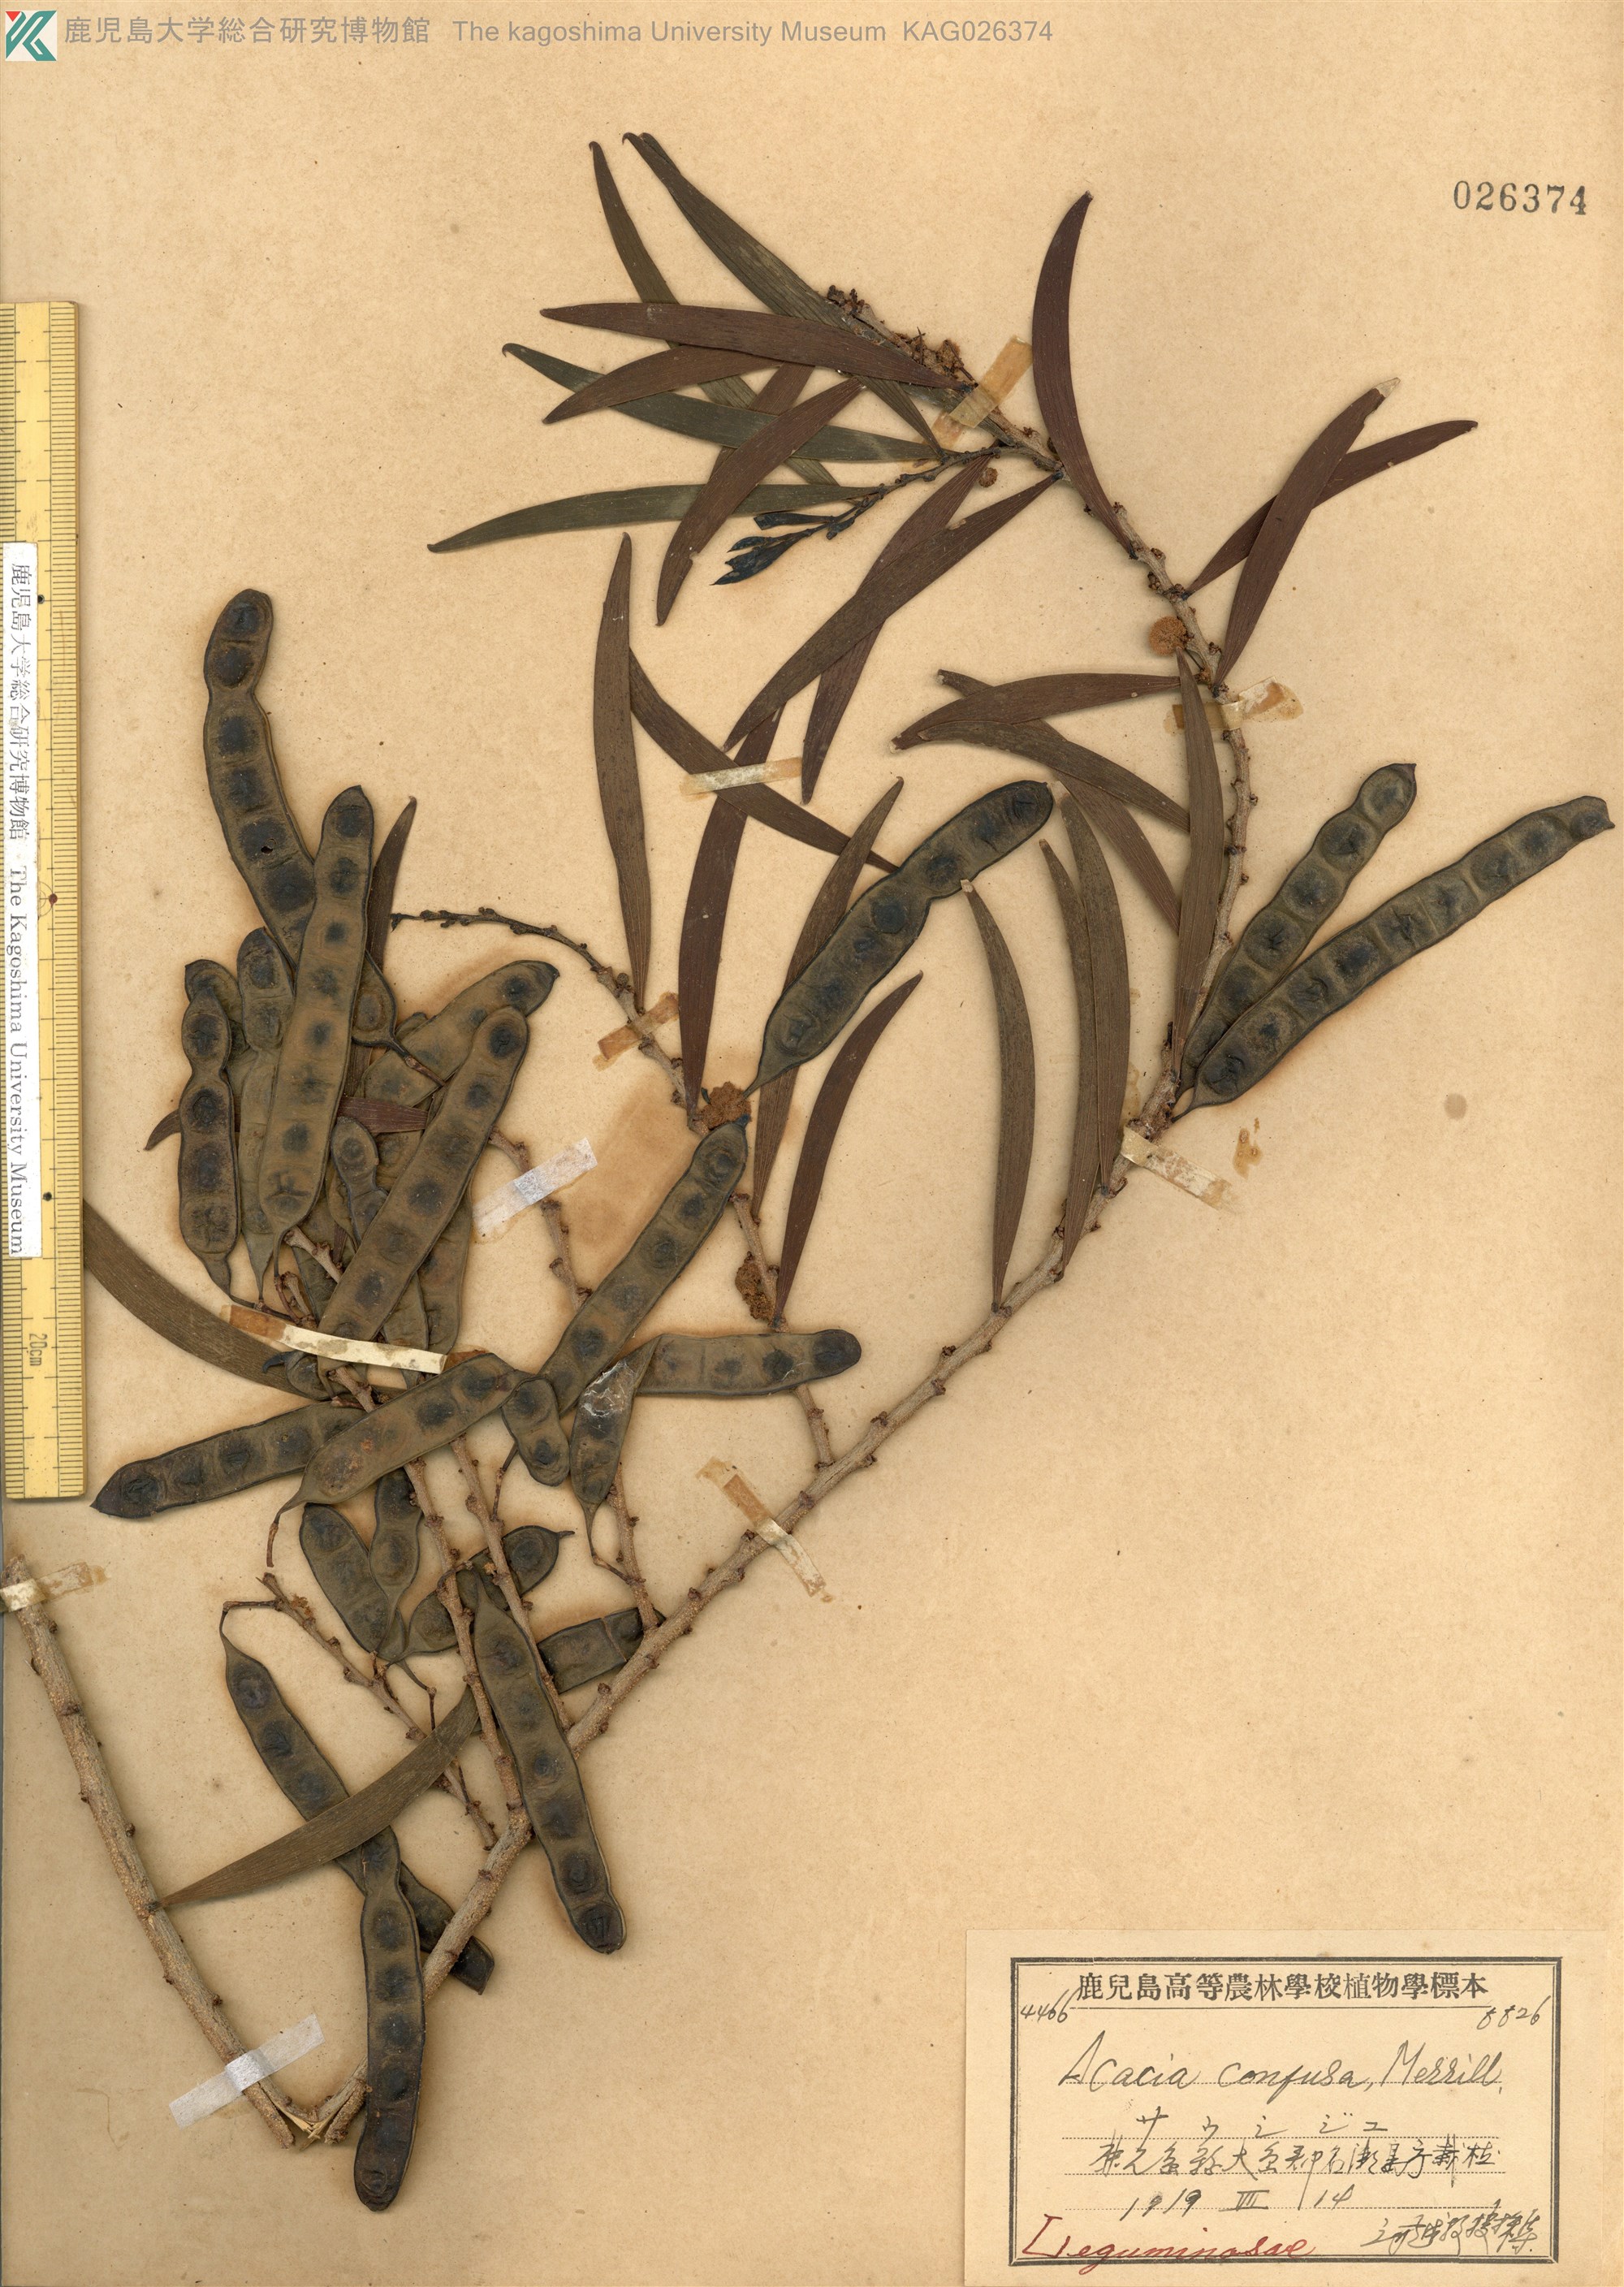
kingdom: Plantae
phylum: Tracheophyta
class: Magnoliopsida
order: Fabales
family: Fabaceae
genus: Acacia
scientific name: Acacia confusa
